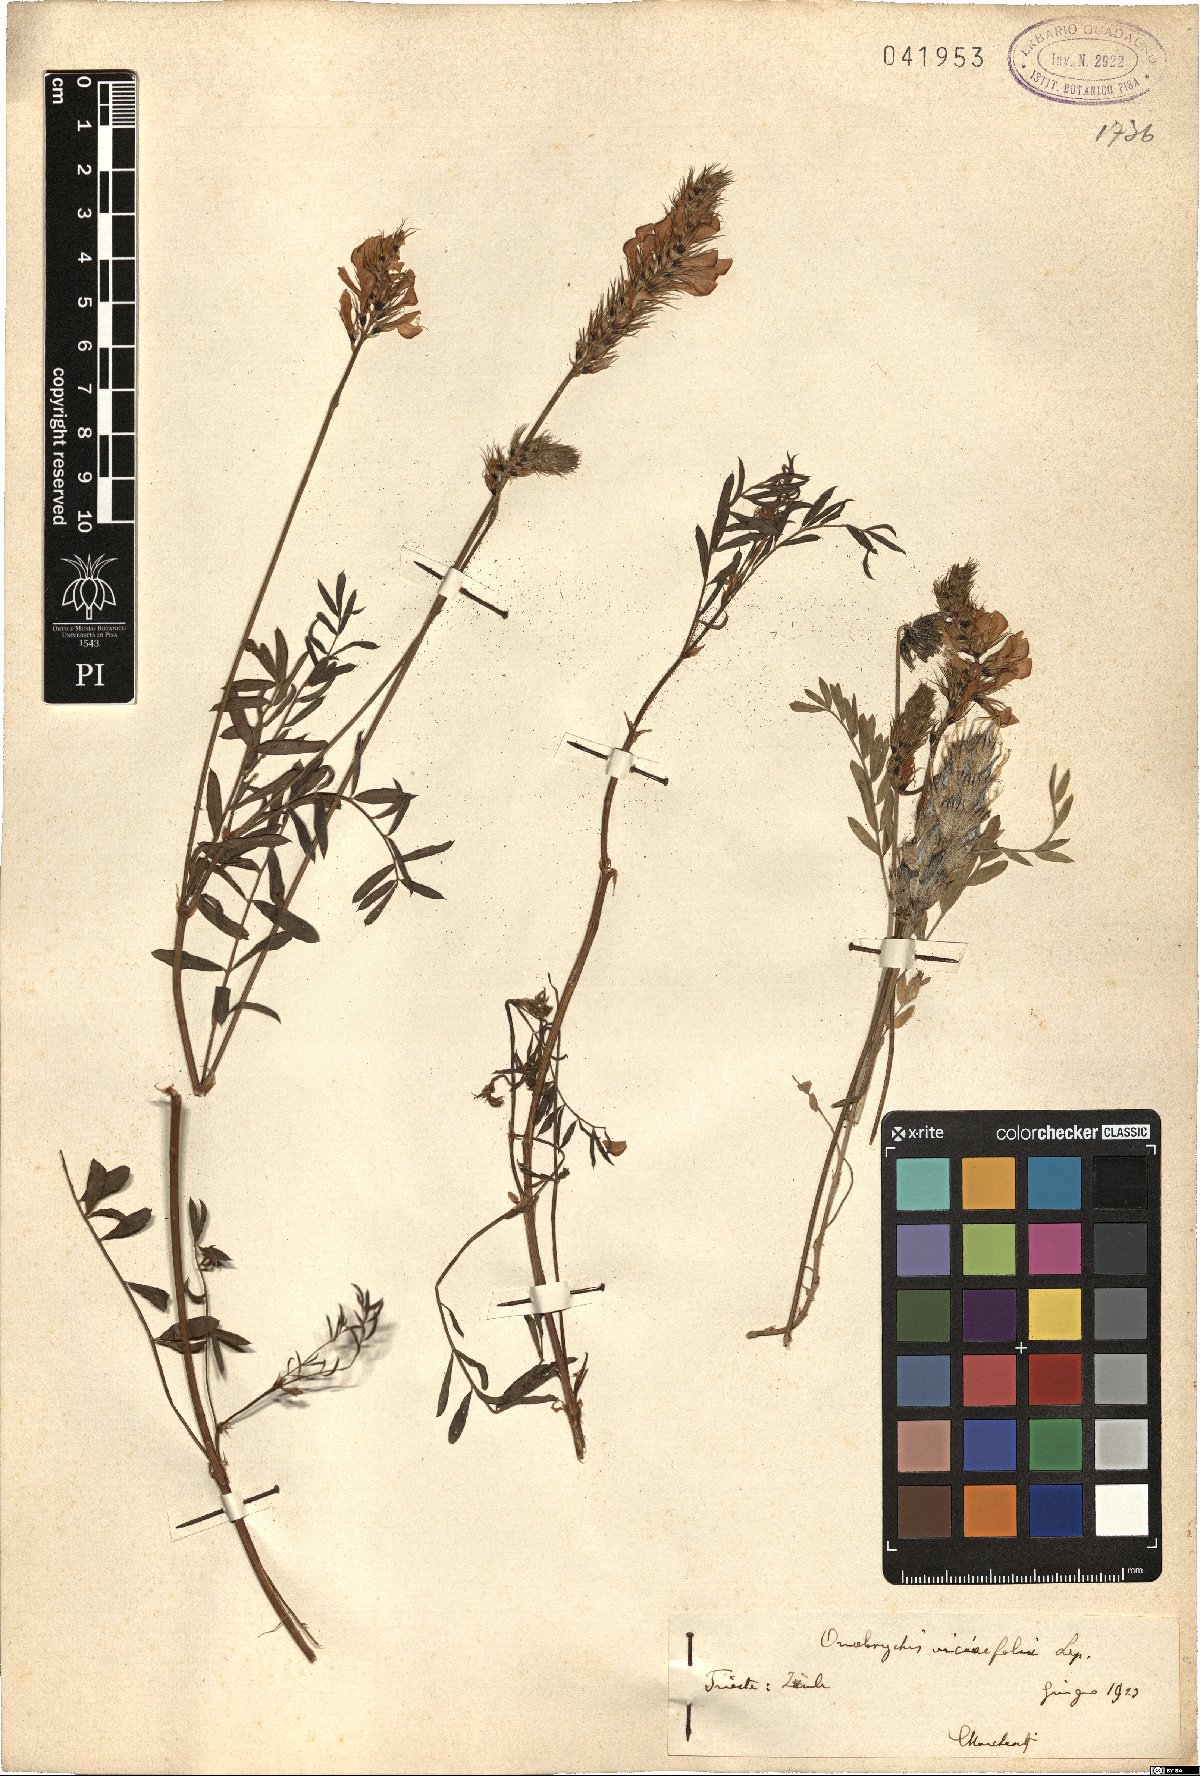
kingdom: Plantae
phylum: Tracheophyta
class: Magnoliopsida
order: Fabales
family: Fabaceae
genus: Onobrychis
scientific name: Onobrychis viciifolia
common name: Sainfoin
